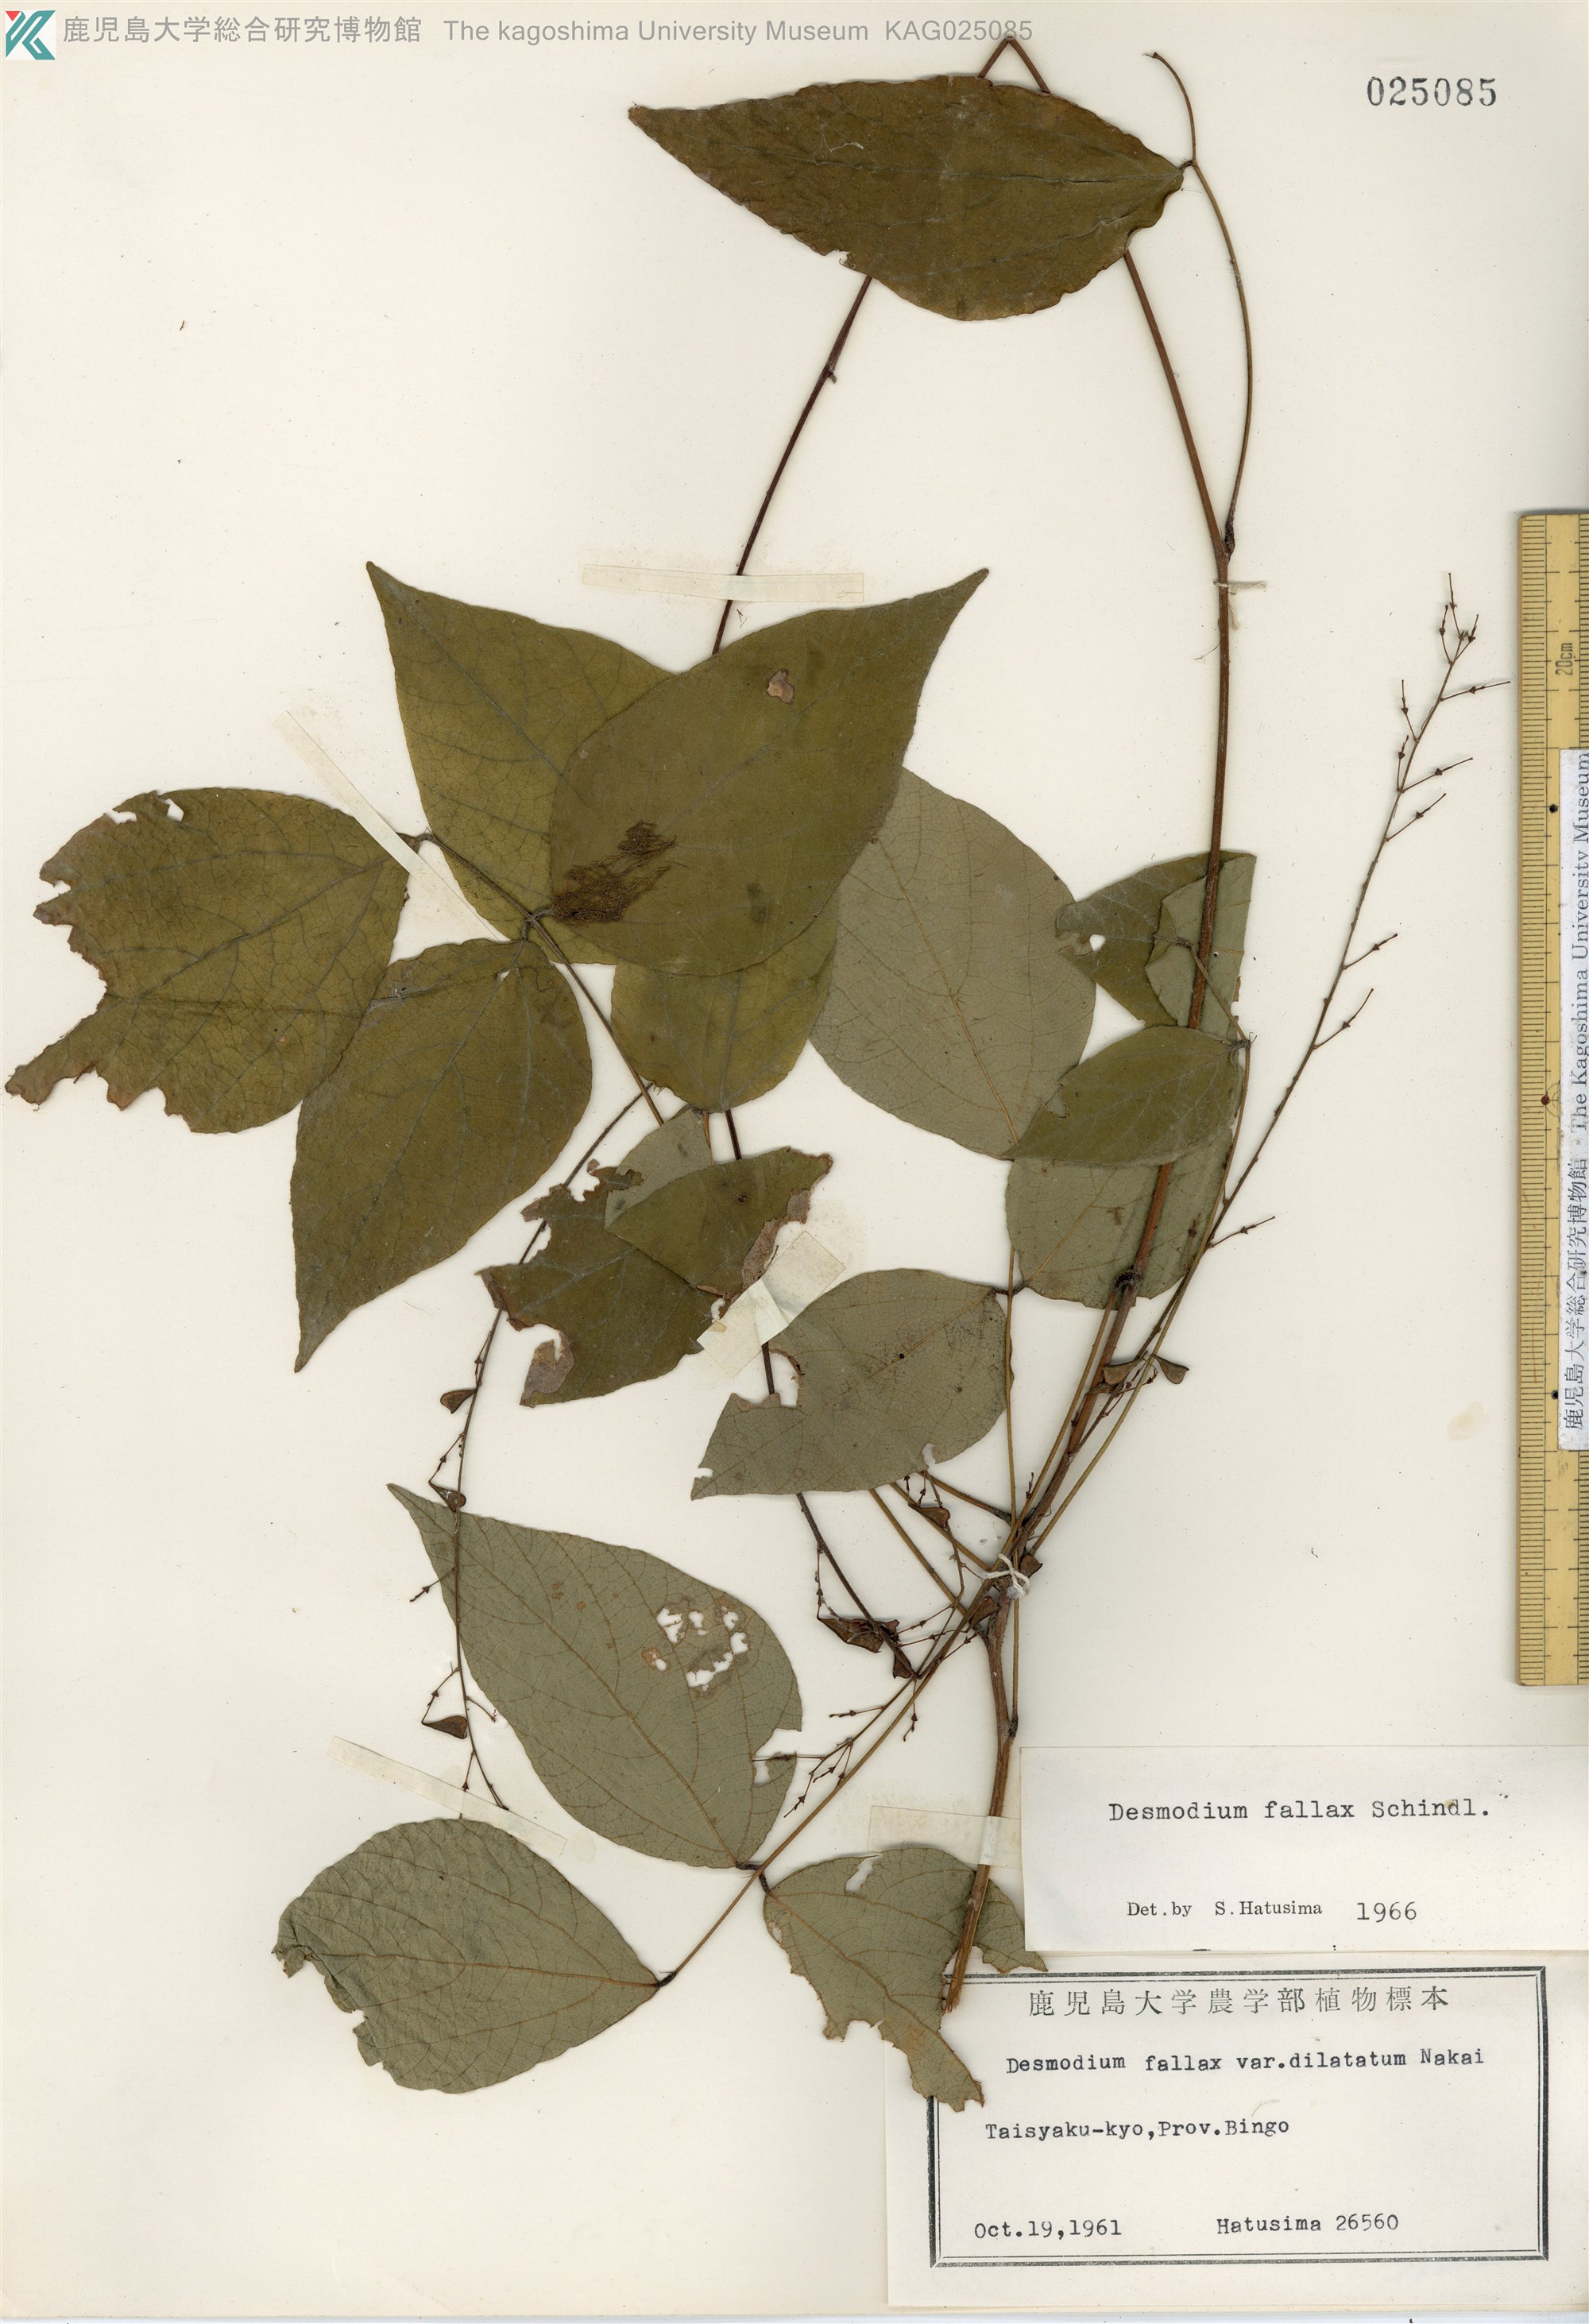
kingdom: Plantae
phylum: Tracheophyta
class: Magnoliopsida
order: Fabales
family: Fabaceae
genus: Hylodesmum
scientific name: Hylodesmum podocarpum
